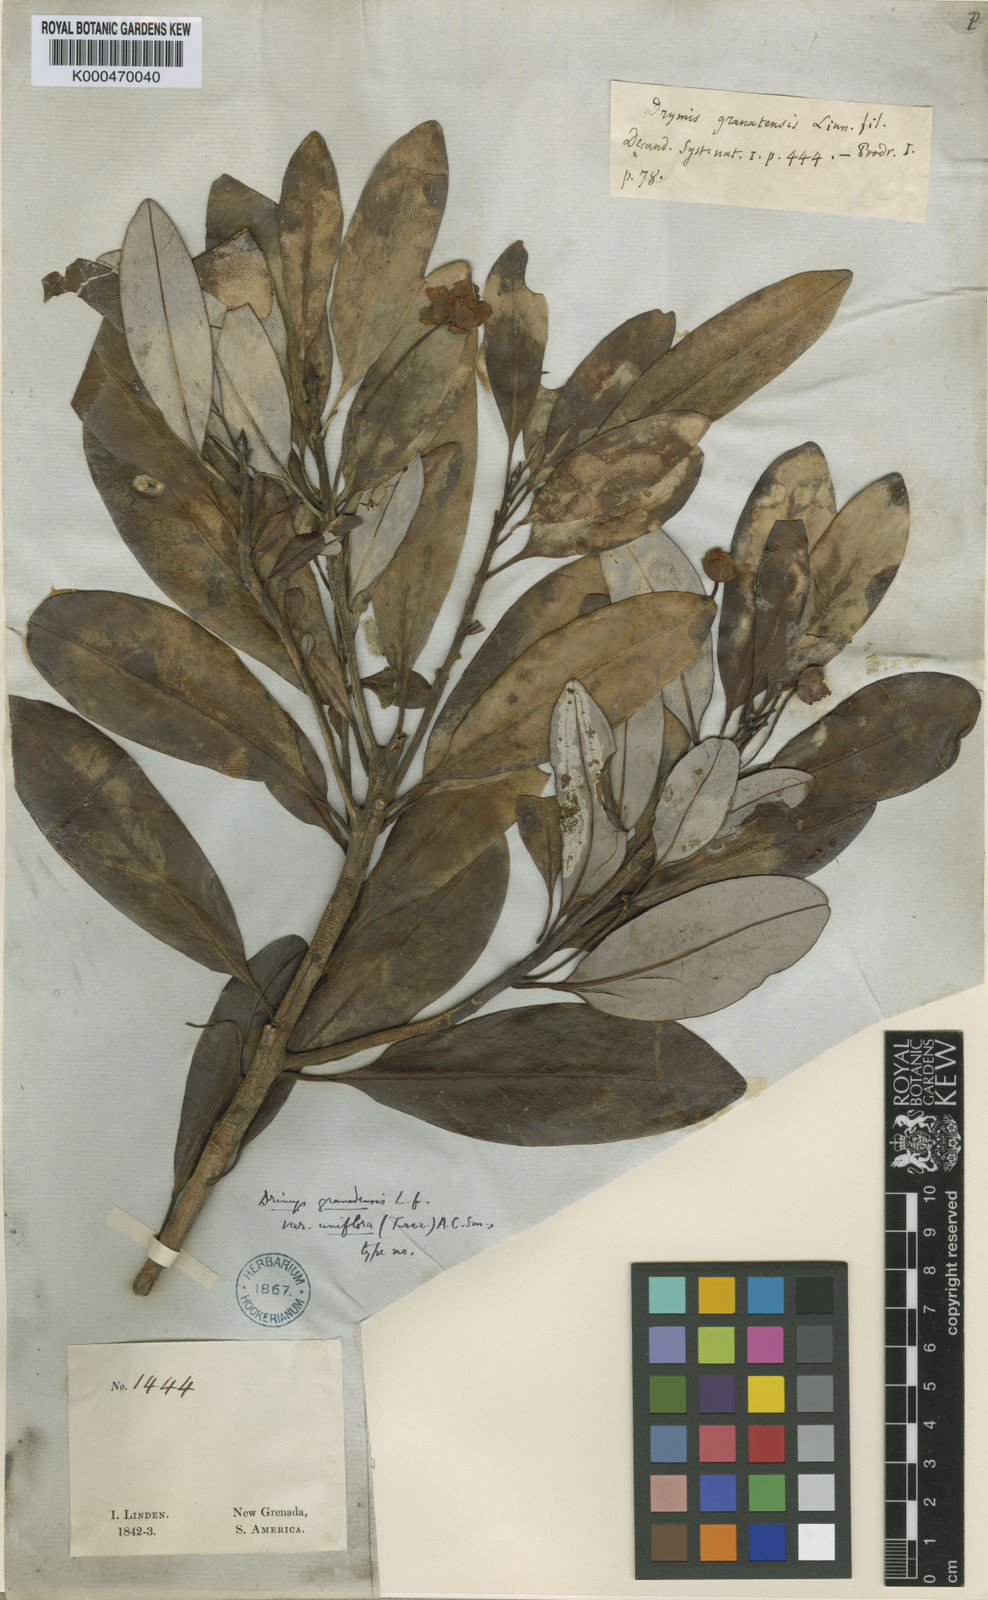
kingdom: Plantae
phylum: Tracheophyta
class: Magnoliopsida
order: Canellales
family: Winteraceae
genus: Drimys
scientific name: Drimys granadensis
